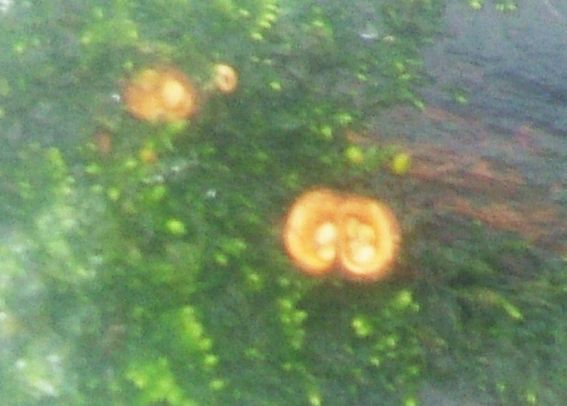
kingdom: Fungi
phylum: Basidiomycota
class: Agaricomycetes
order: Agaricales
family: Nidulariaceae
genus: Crucibulum
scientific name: Crucibulum crucibuliforme
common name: krukkesvamp
